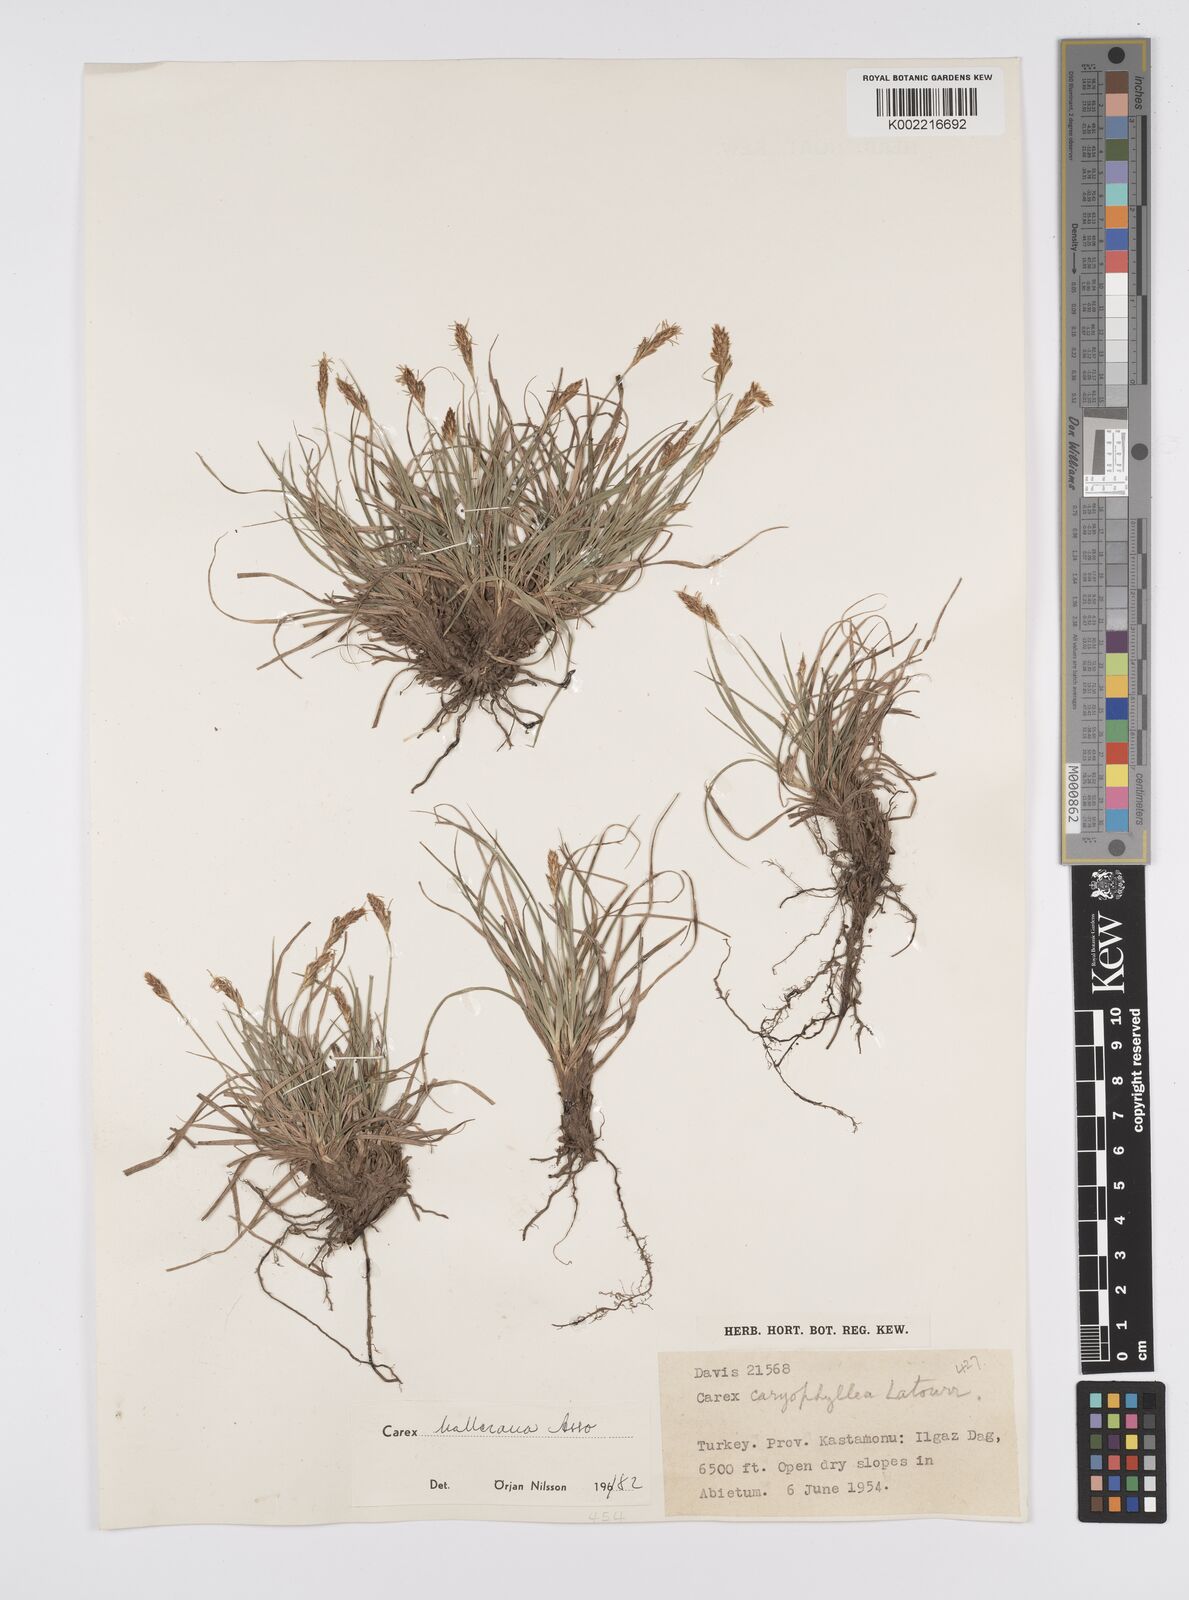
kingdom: Plantae
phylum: Tracheophyta
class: Liliopsida
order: Poales
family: Cyperaceae
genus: Carex
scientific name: Carex halleriana
